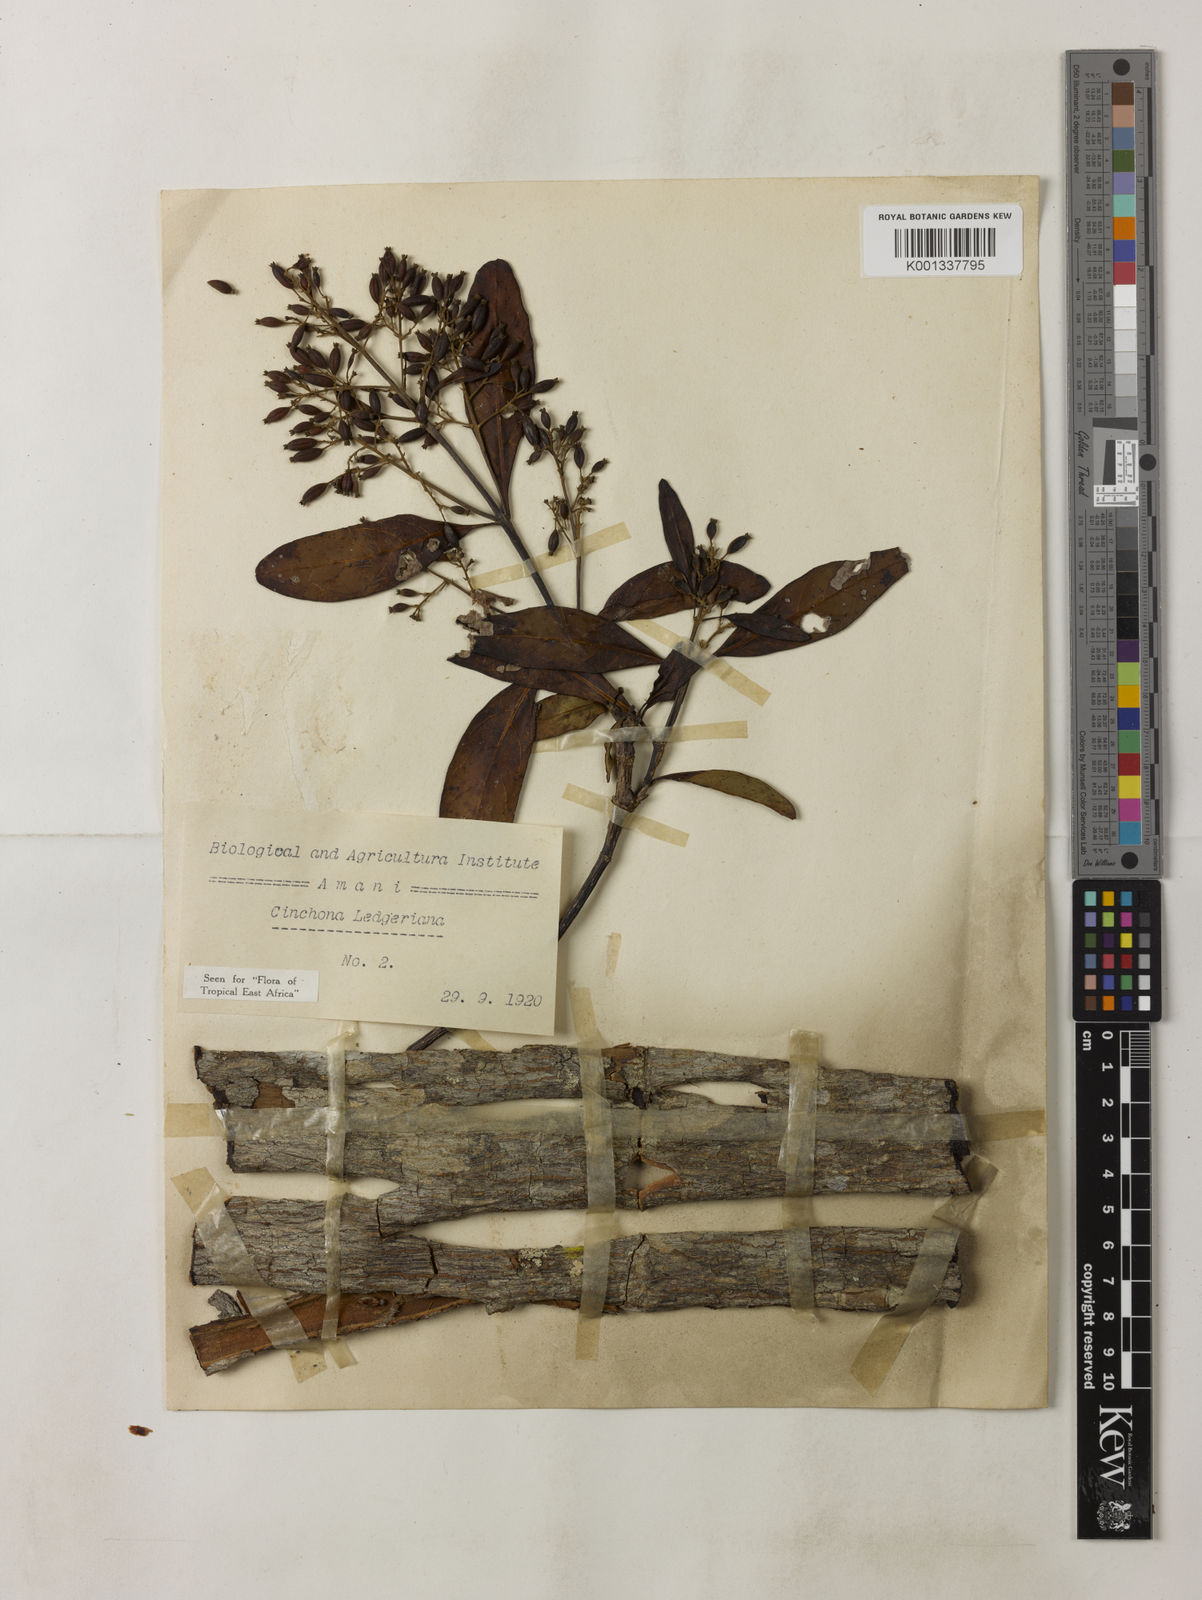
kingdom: Plantae
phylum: Tracheophyta
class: Magnoliopsida
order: Gentianales
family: Rubiaceae
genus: Cinchona
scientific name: Cinchona calisaya
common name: Ledgerbark
